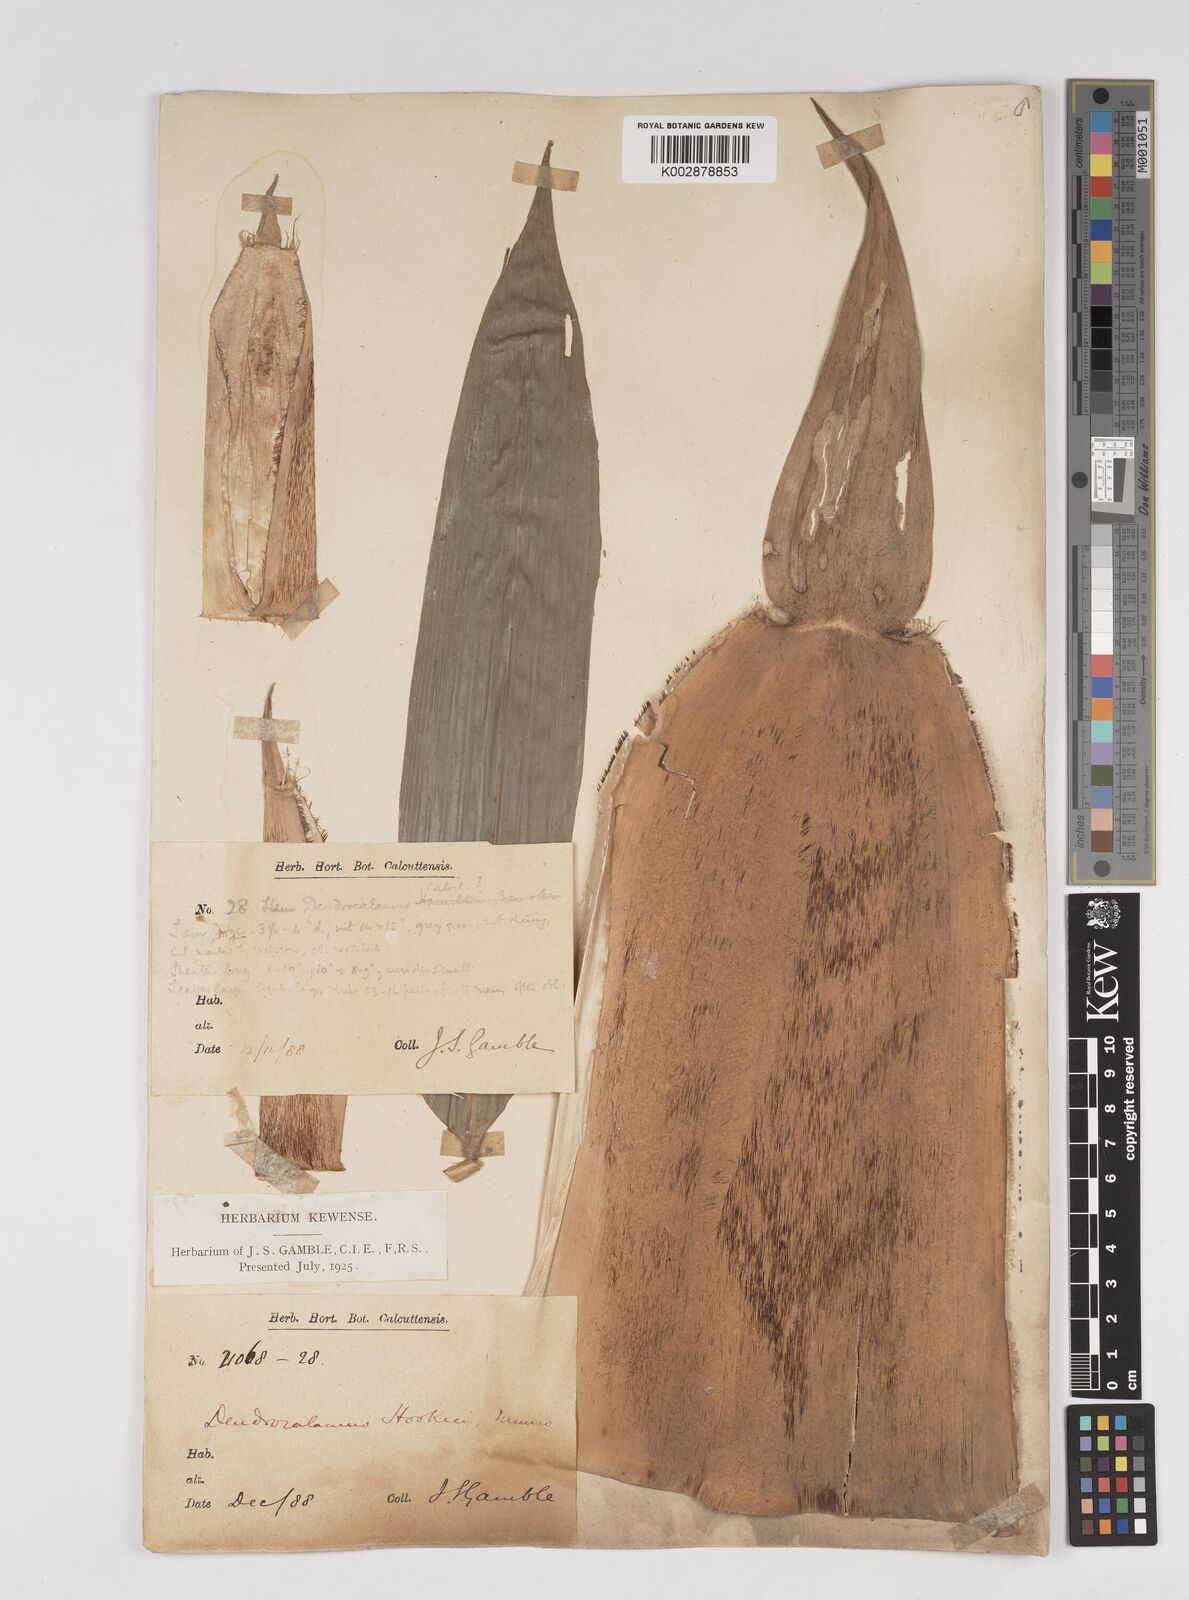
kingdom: Plantae
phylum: Tracheophyta
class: Liliopsida
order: Poales
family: Poaceae
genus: Dendrocalamus
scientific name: Dendrocalamus hookeri
